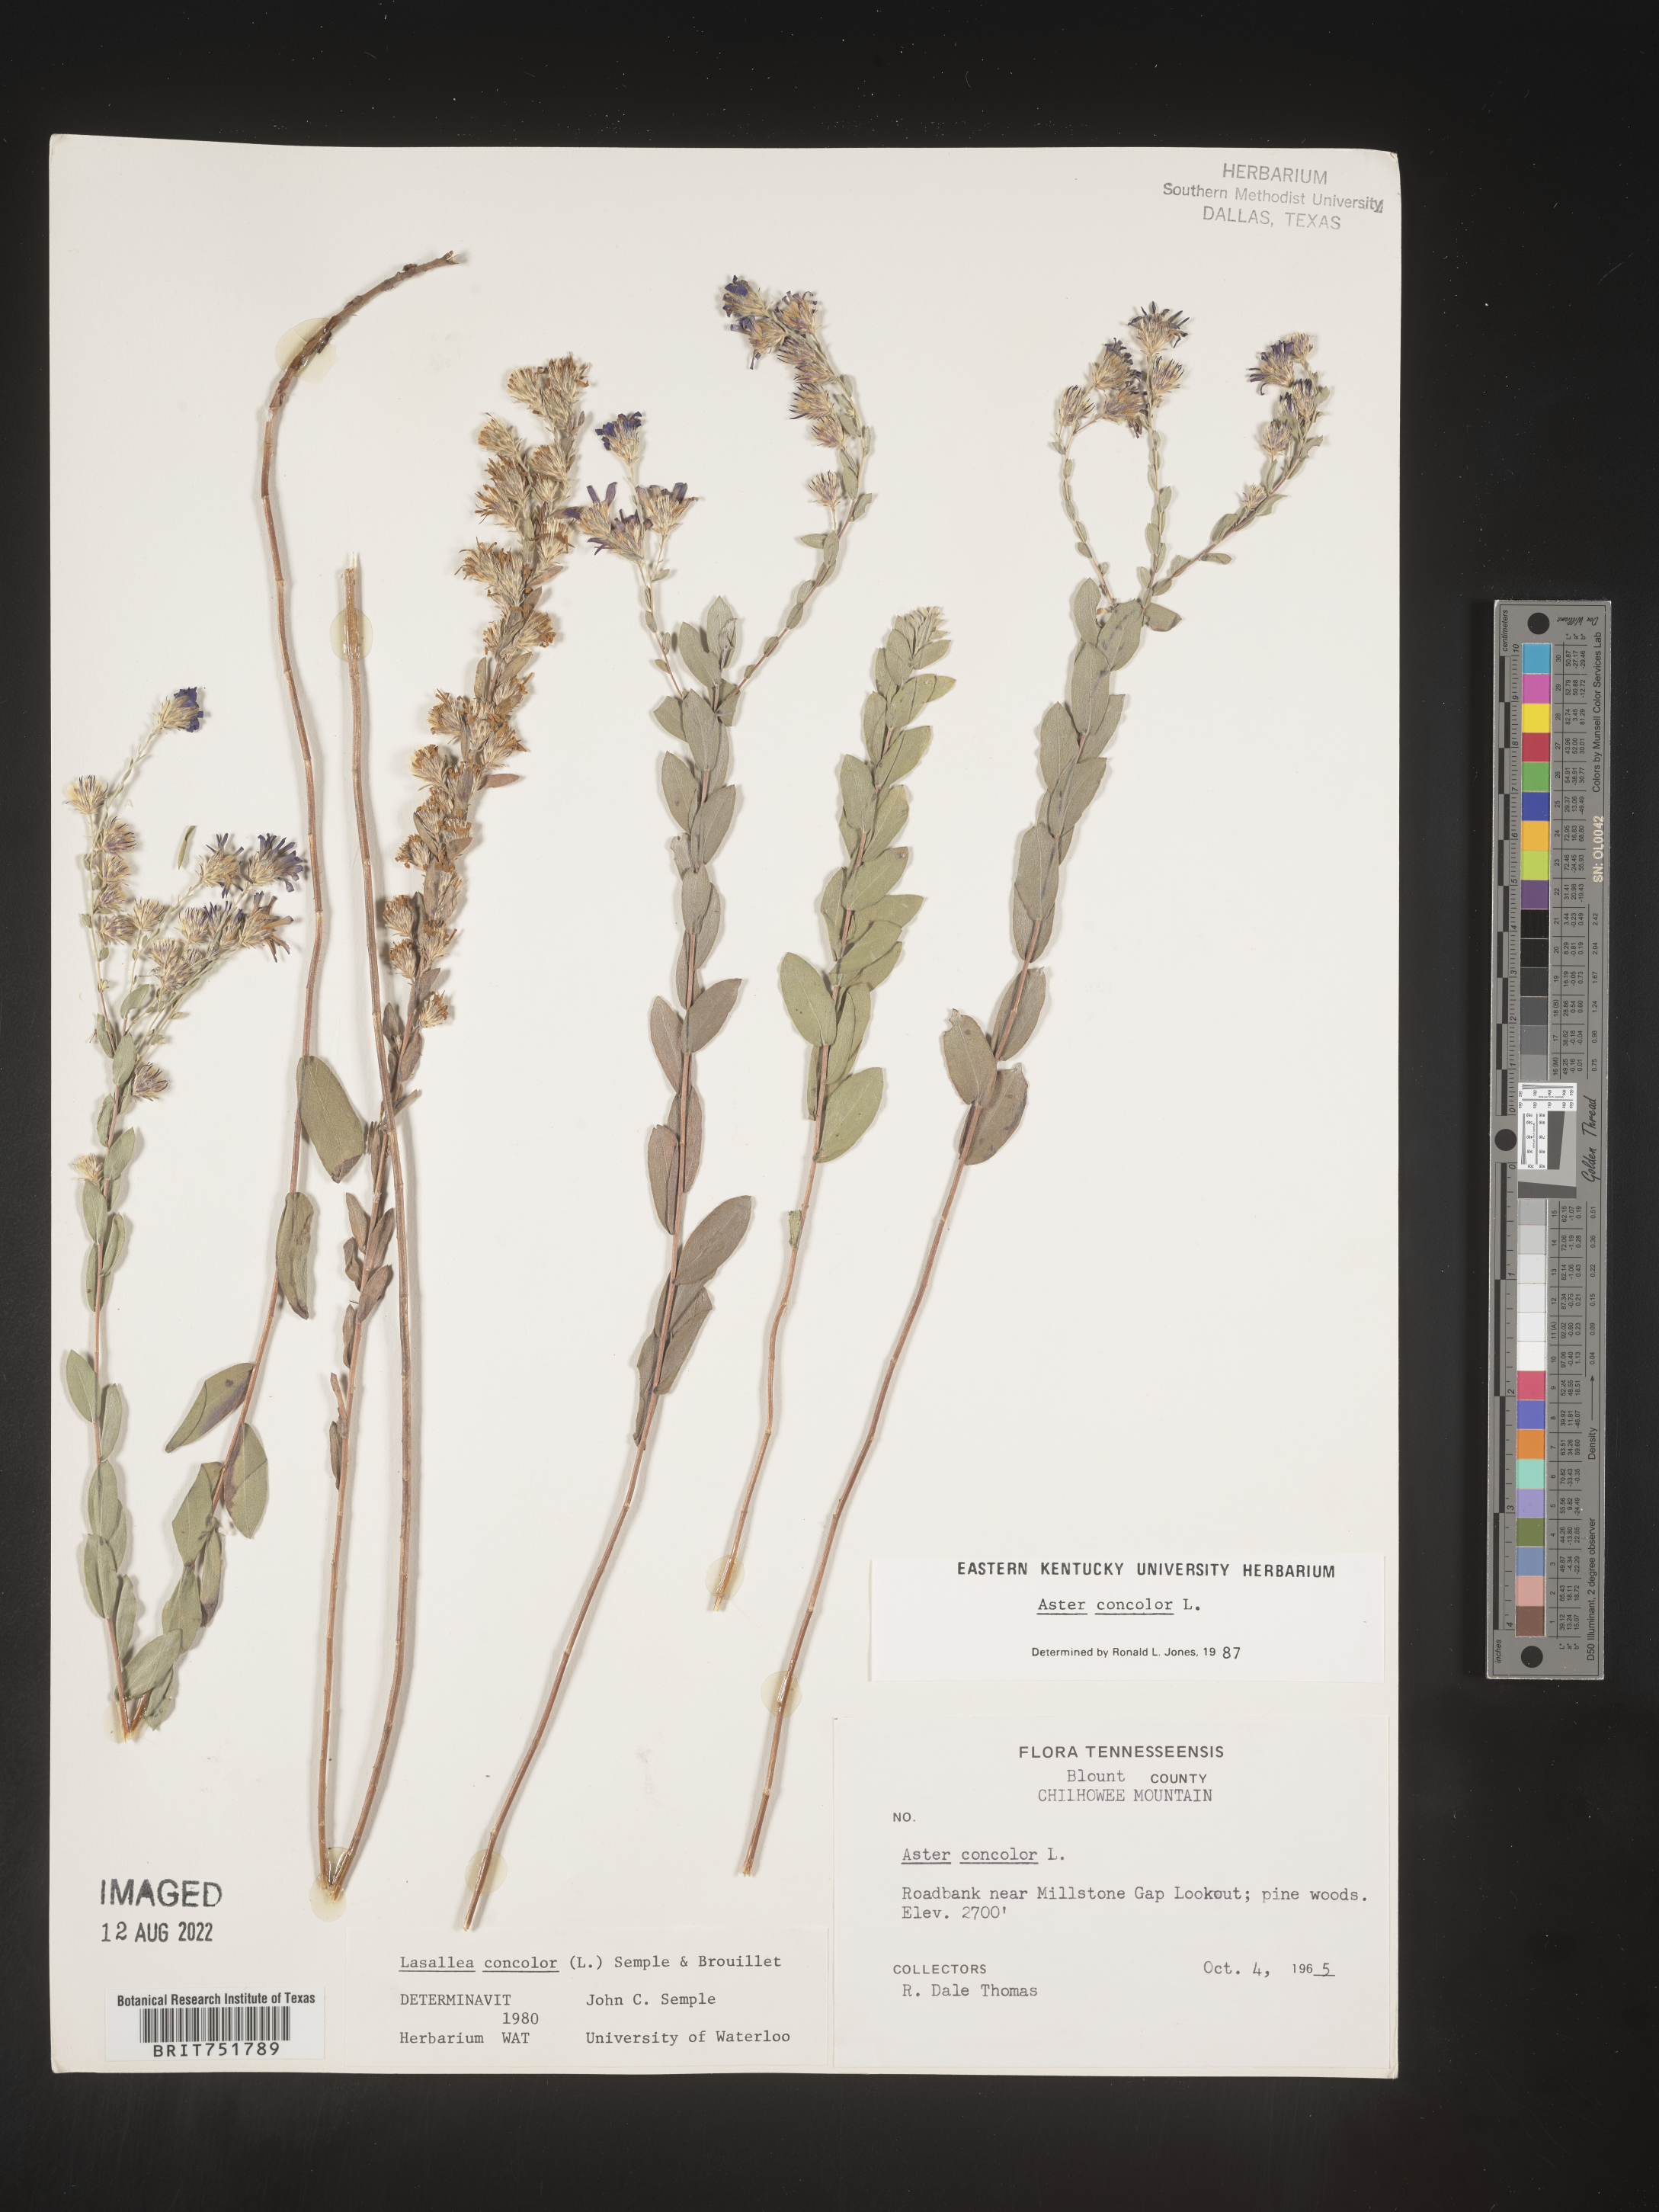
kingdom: Plantae
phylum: Tracheophyta
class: Magnoliopsida
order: Asterales
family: Asteraceae
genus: Symphyotrichum
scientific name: Symphyotrichum concolor
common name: Eastern silver aster
